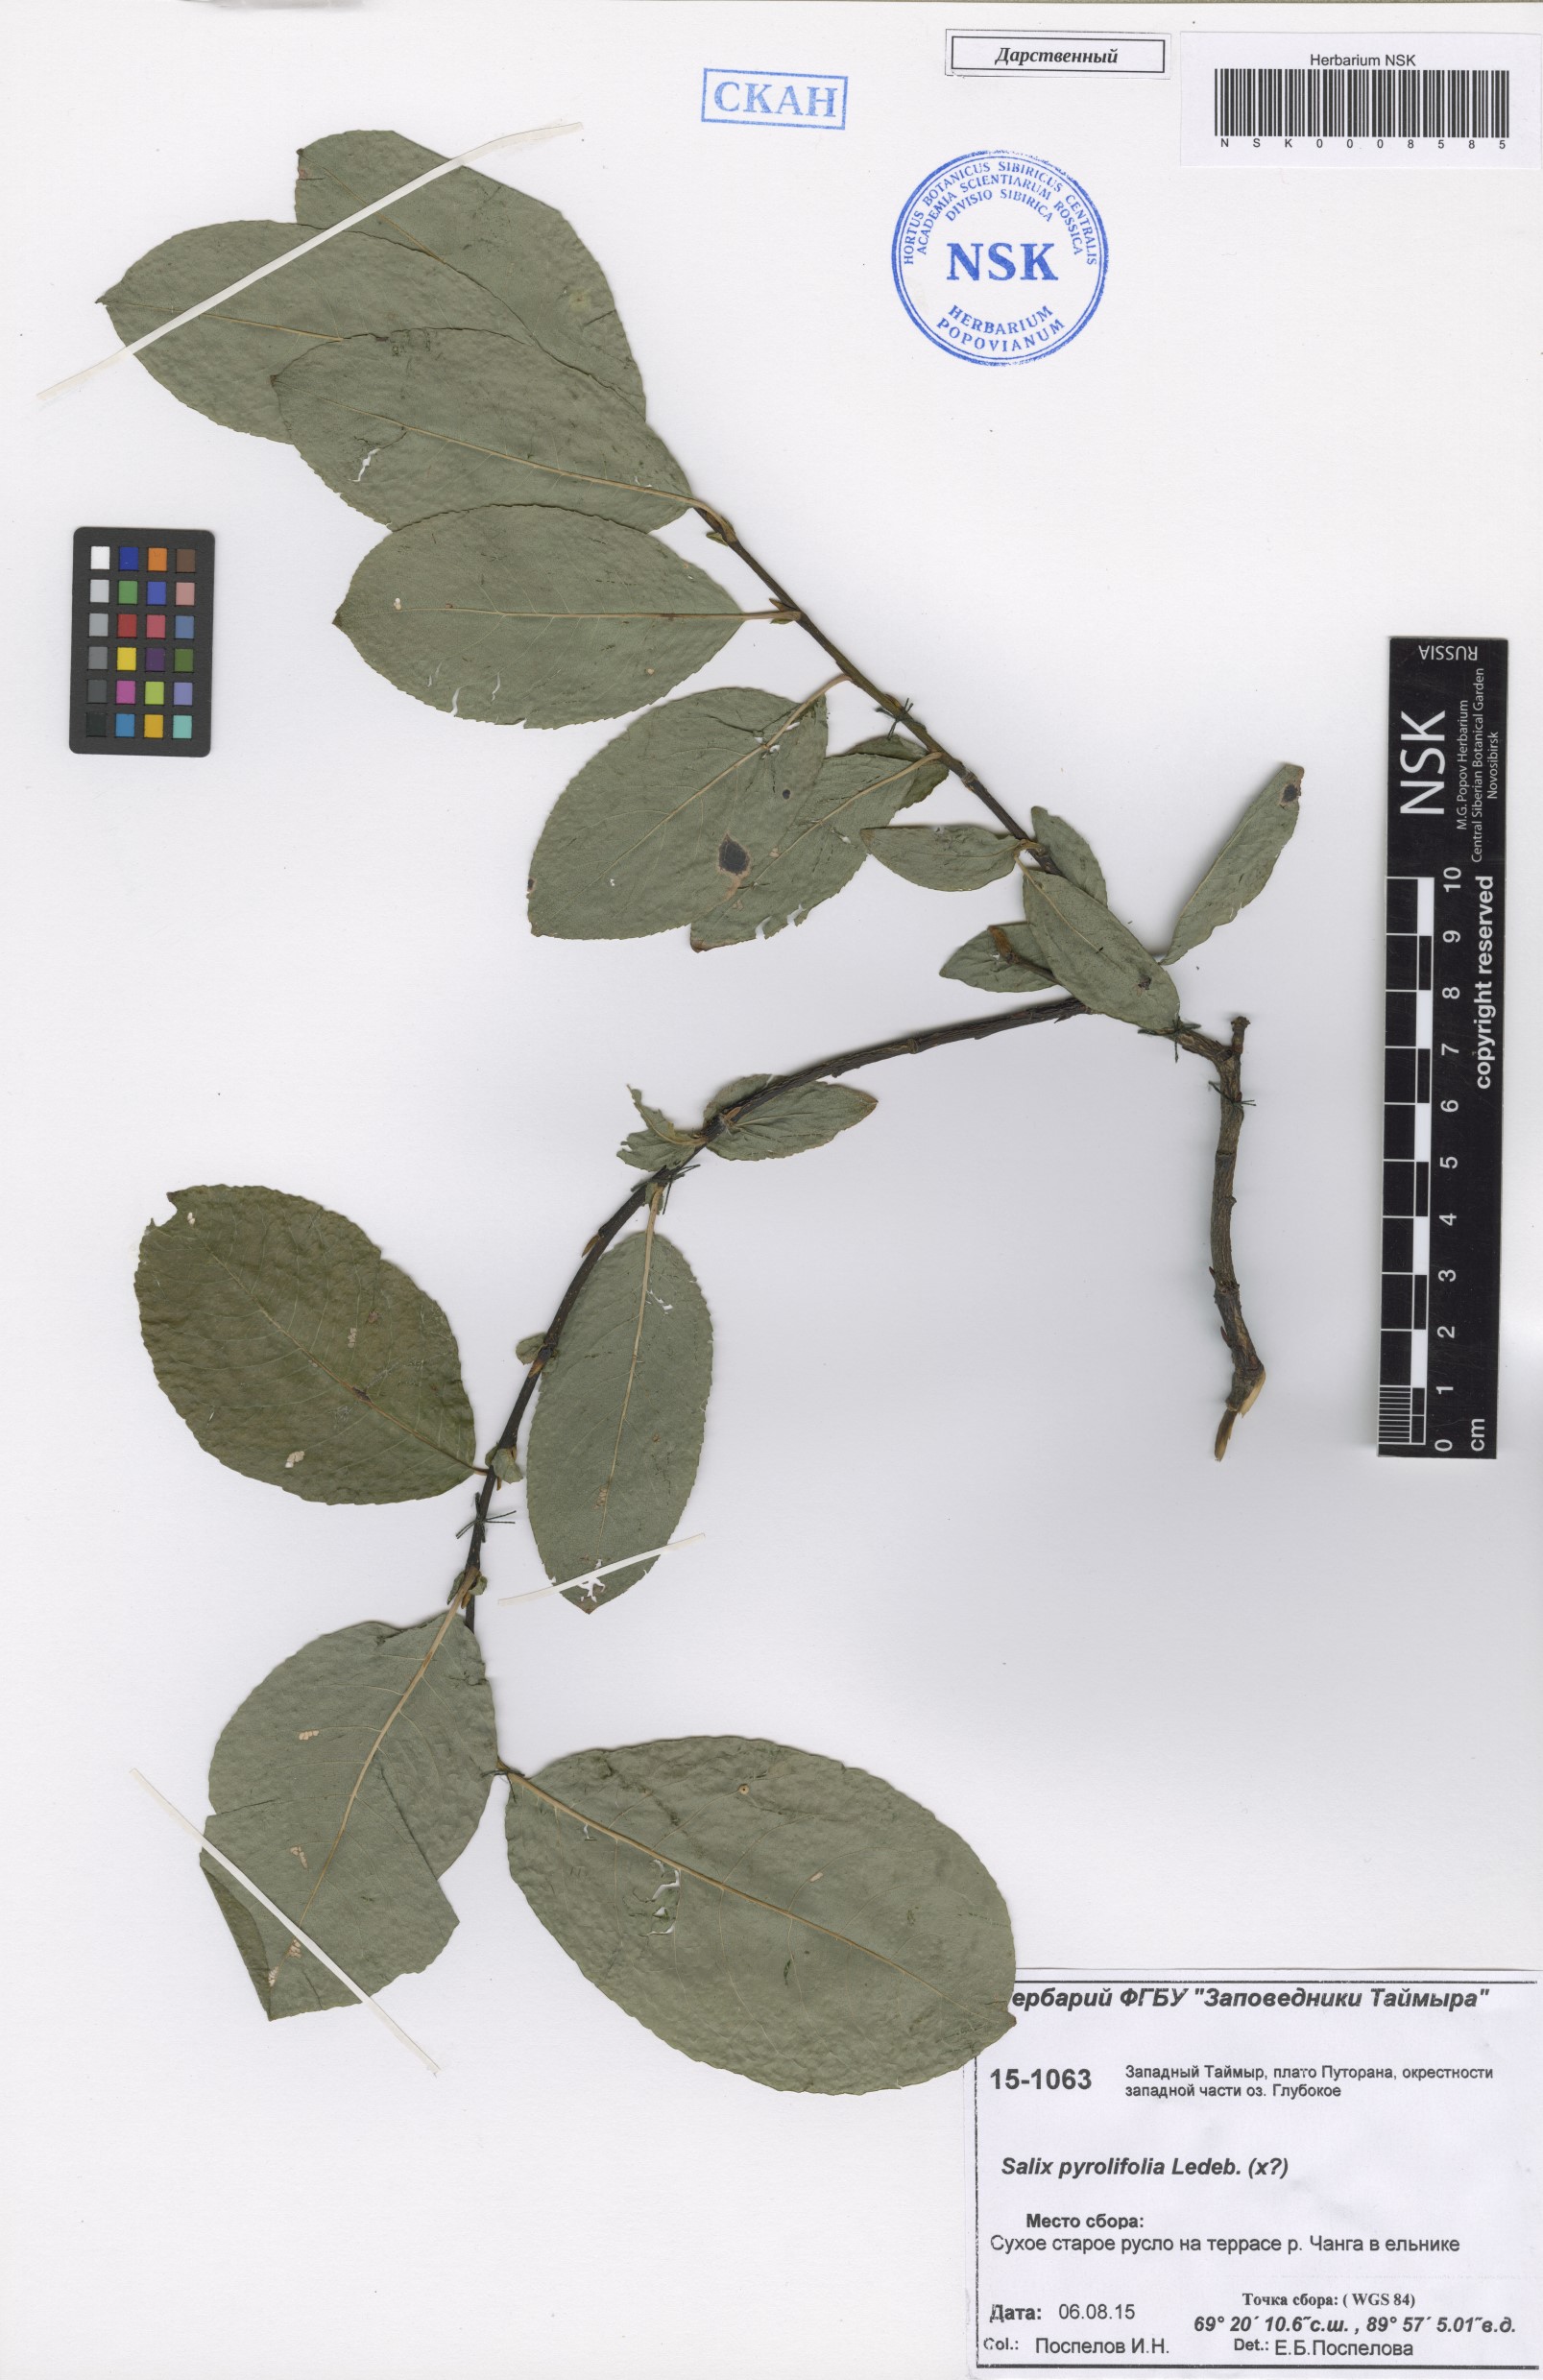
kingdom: Plantae
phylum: Tracheophyta
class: Magnoliopsida
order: Malpighiales
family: Salicaceae
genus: Salix
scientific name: Salix pyrolifolia
